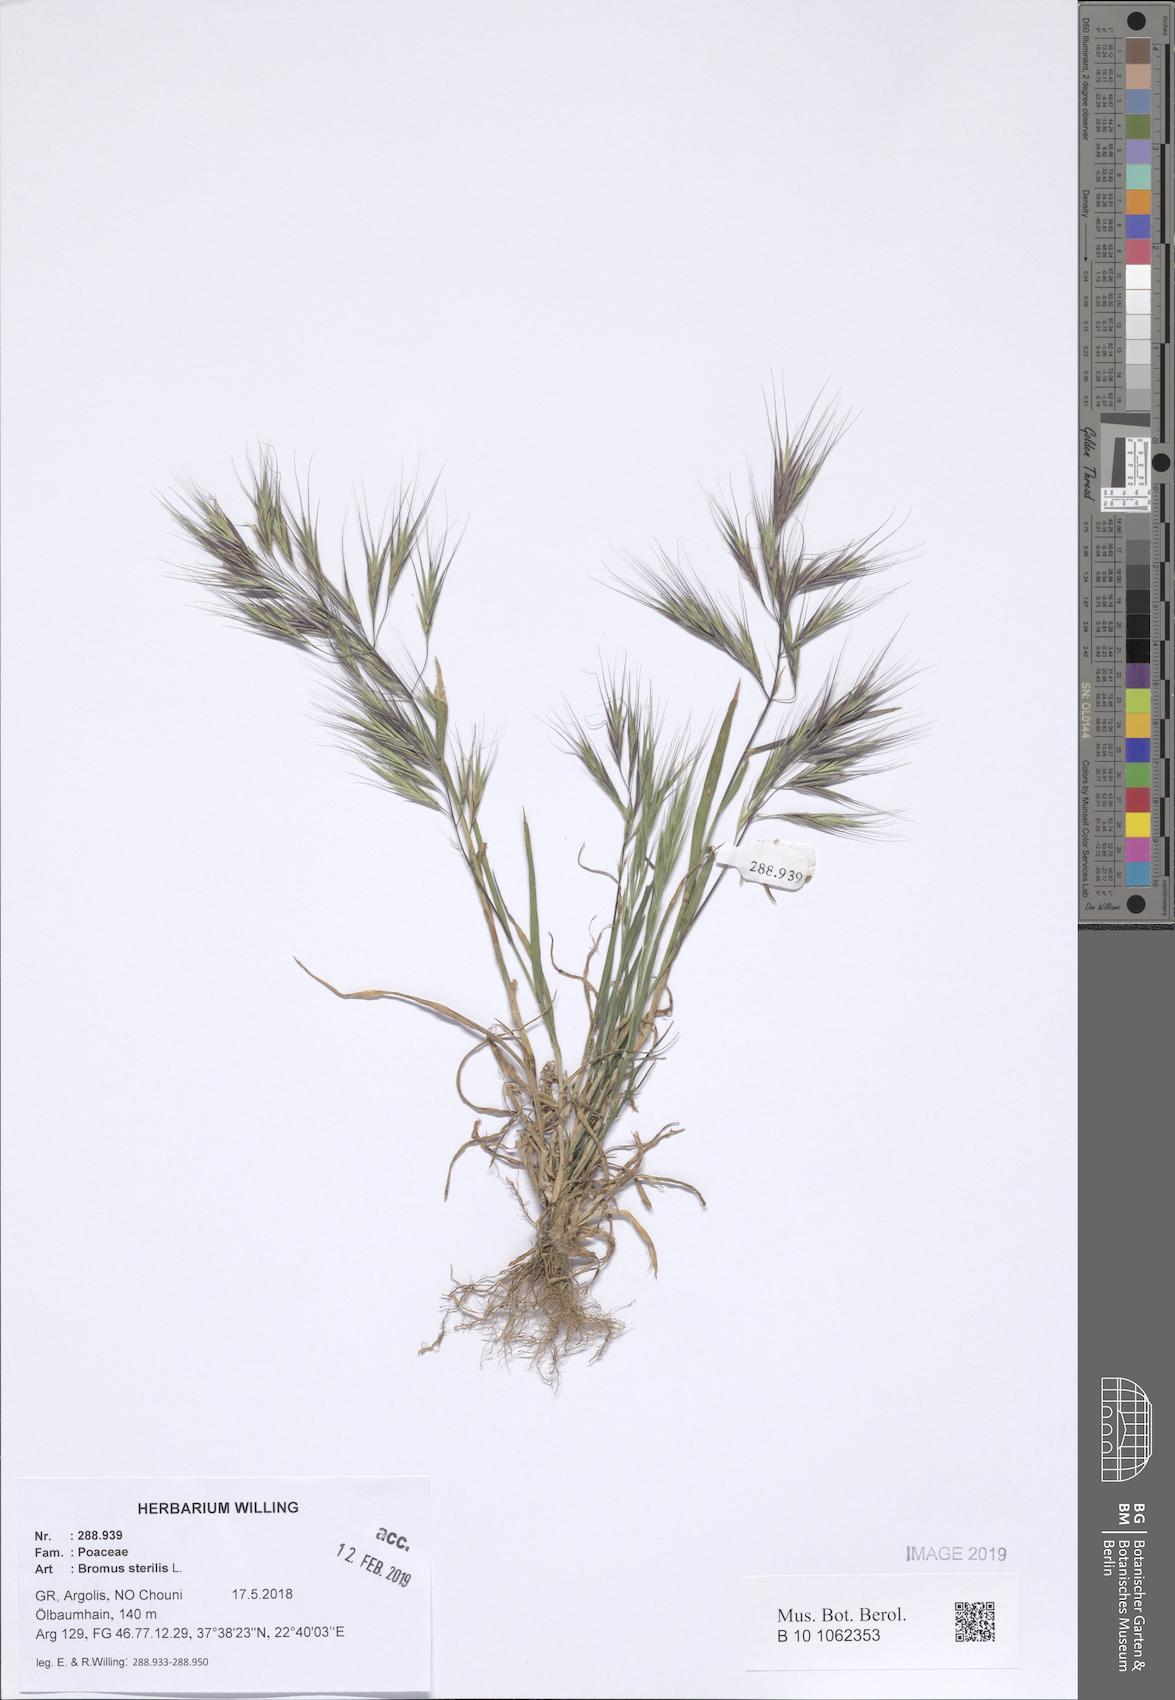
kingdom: Plantae
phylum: Tracheophyta
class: Liliopsida
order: Poales
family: Poaceae
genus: Bromus
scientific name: Bromus sterilis
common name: Poverty brome
